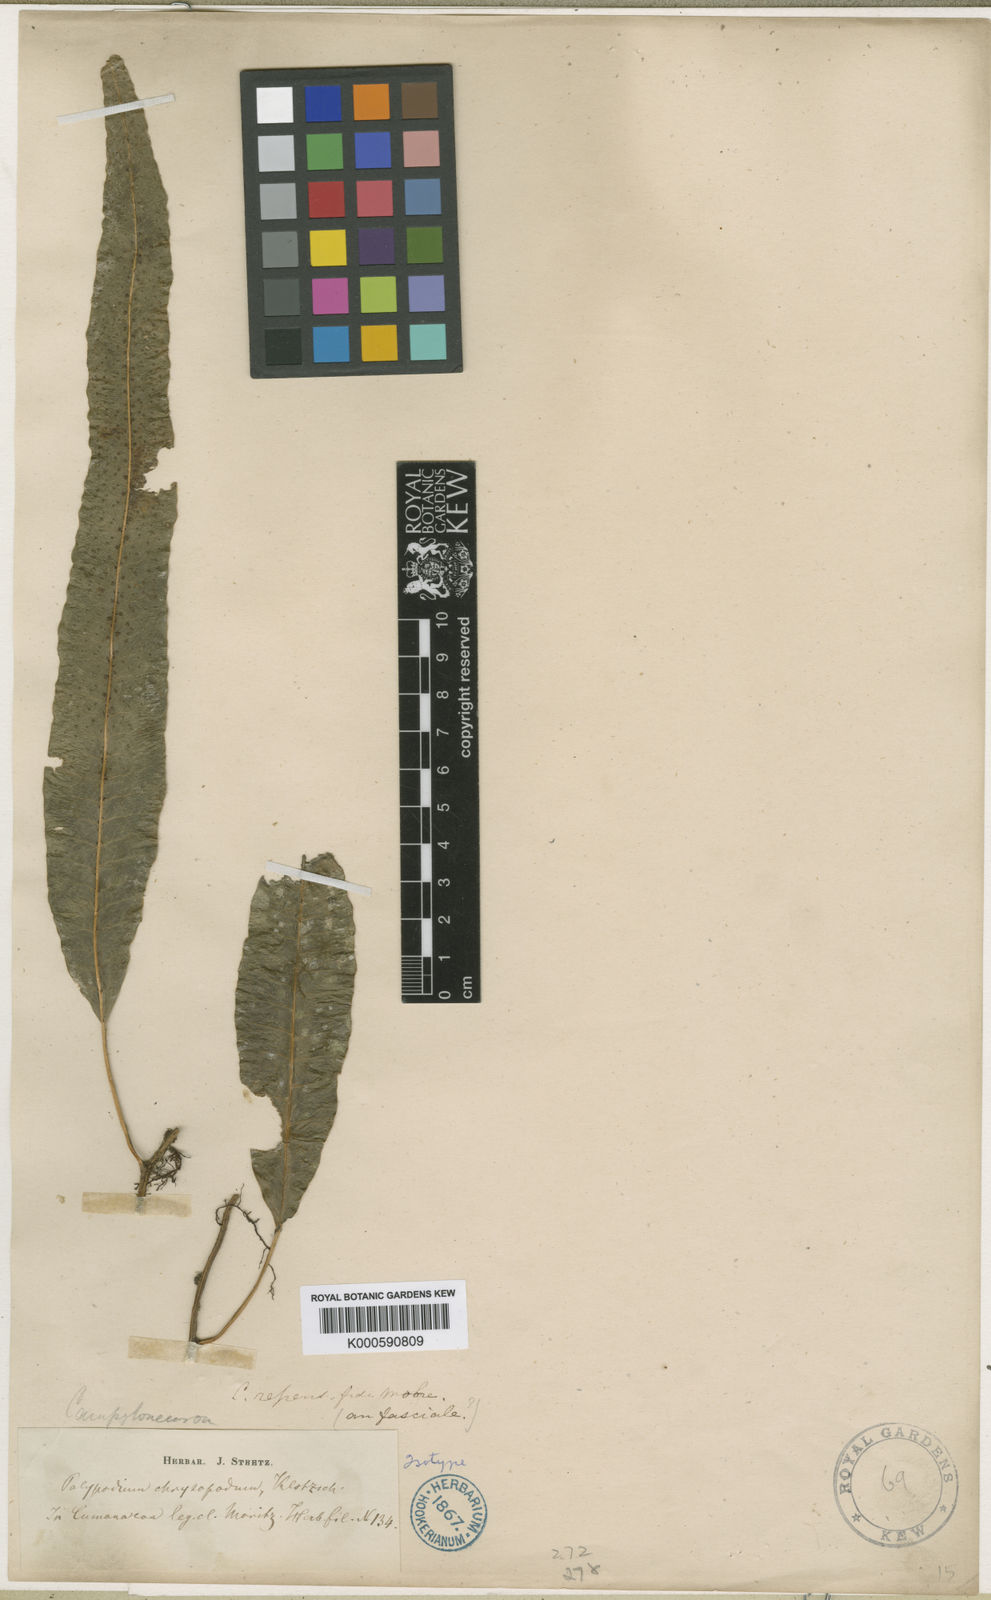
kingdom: Plantae
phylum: Tracheophyta
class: Polypodiopsida
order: Polypodiales
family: Polypodiaceae
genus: Campyloneurum
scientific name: Campyloneurum
